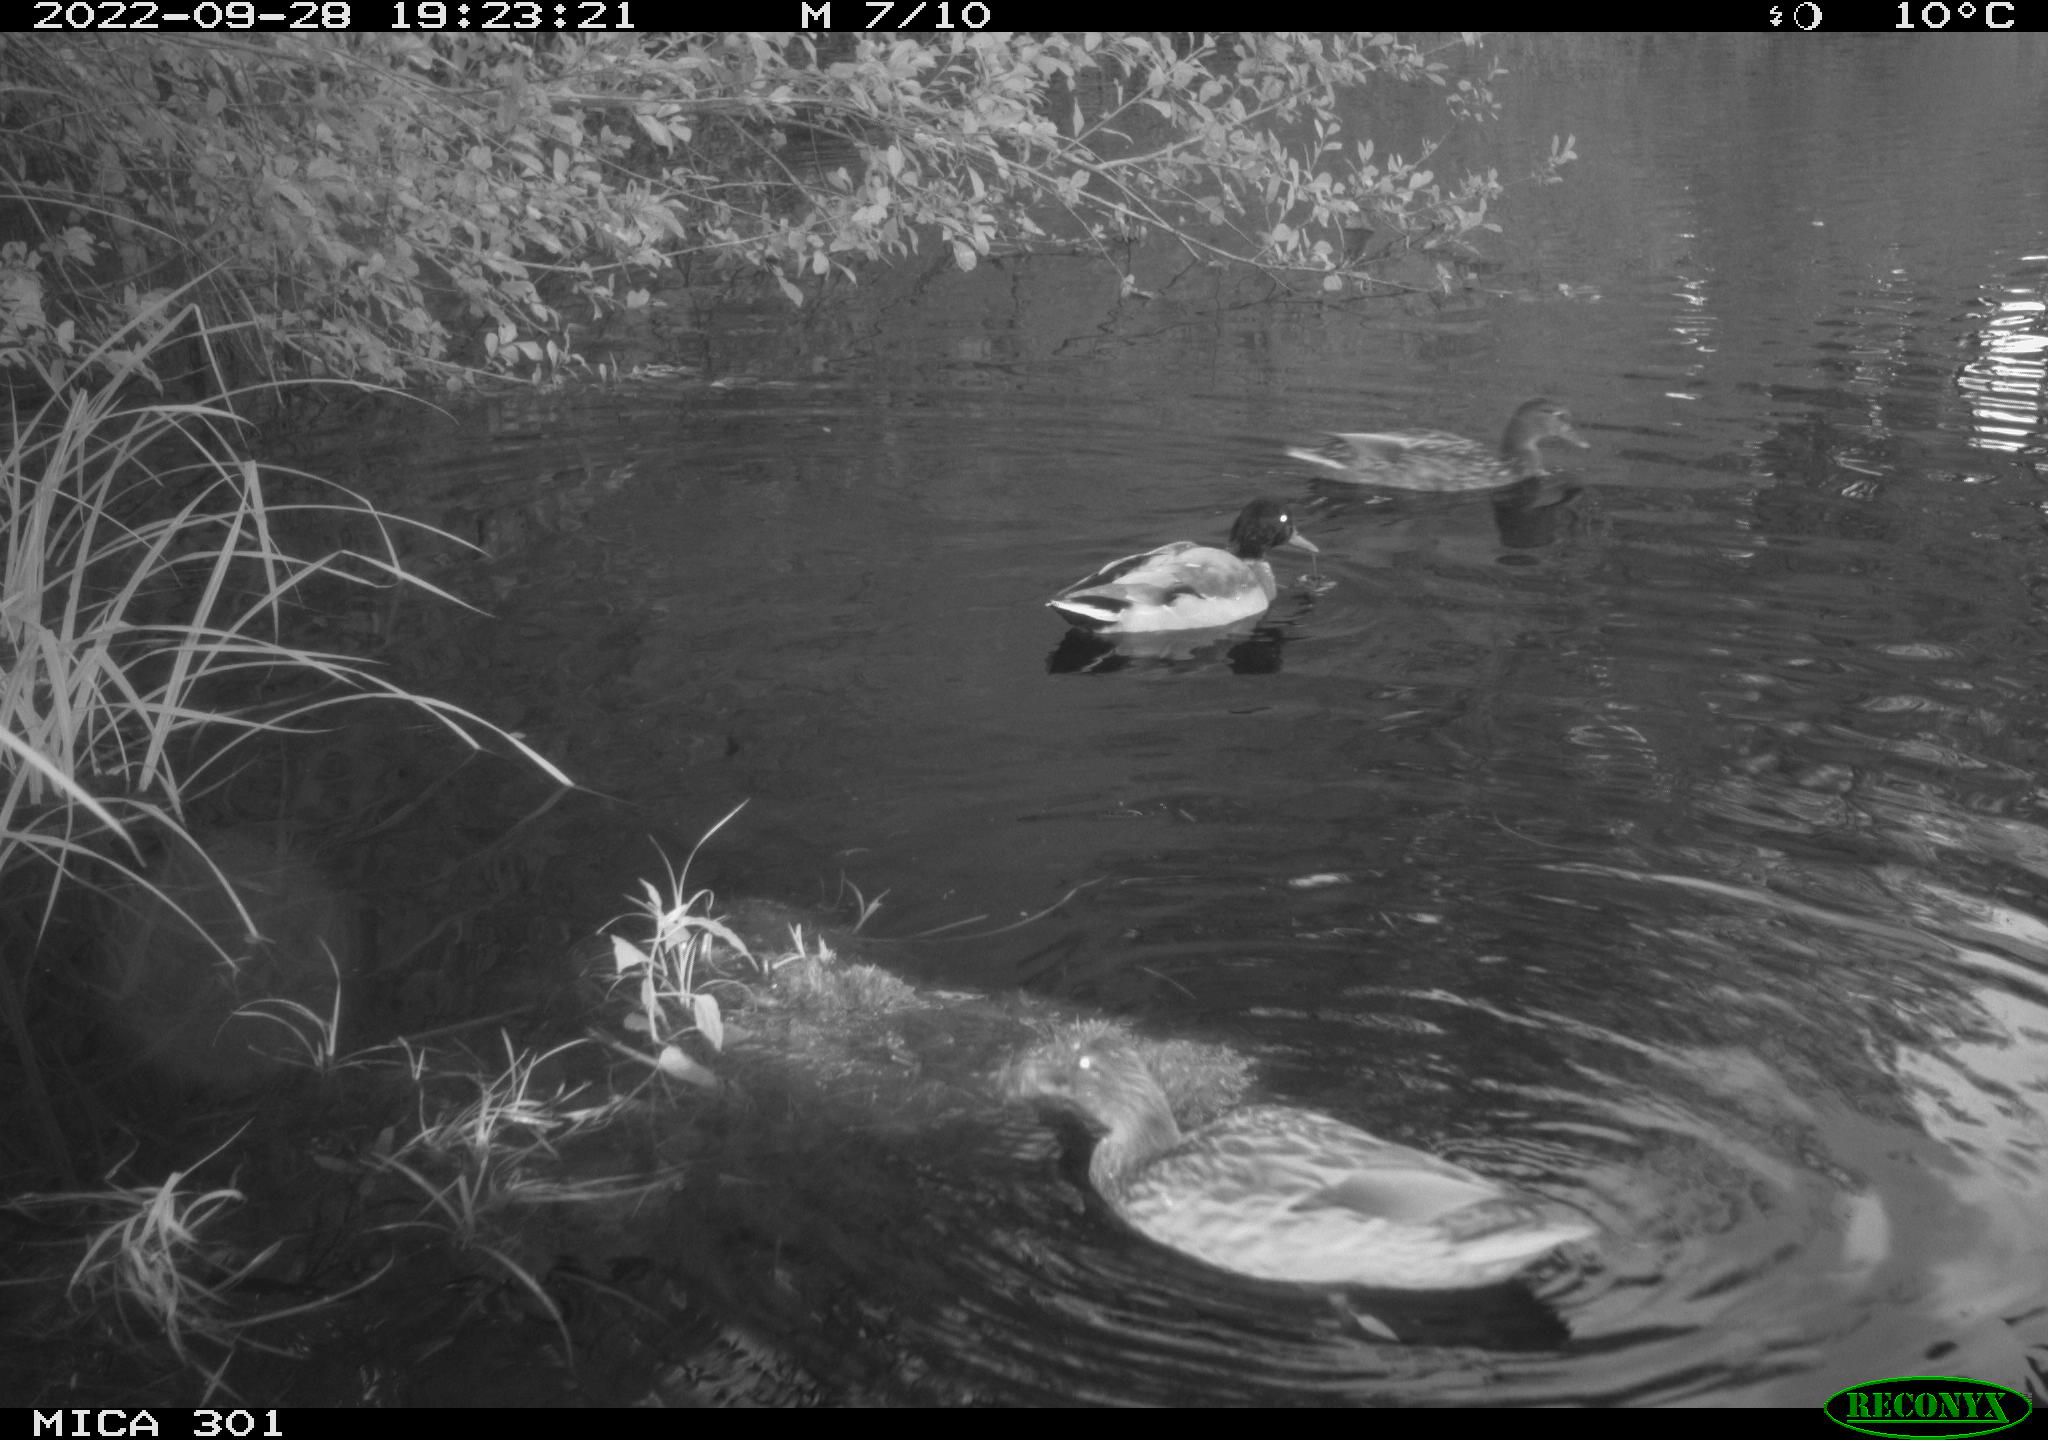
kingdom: Animalia
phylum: Chordata
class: Aves
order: Anseriformes
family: Anatidae
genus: Anas
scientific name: Anas
